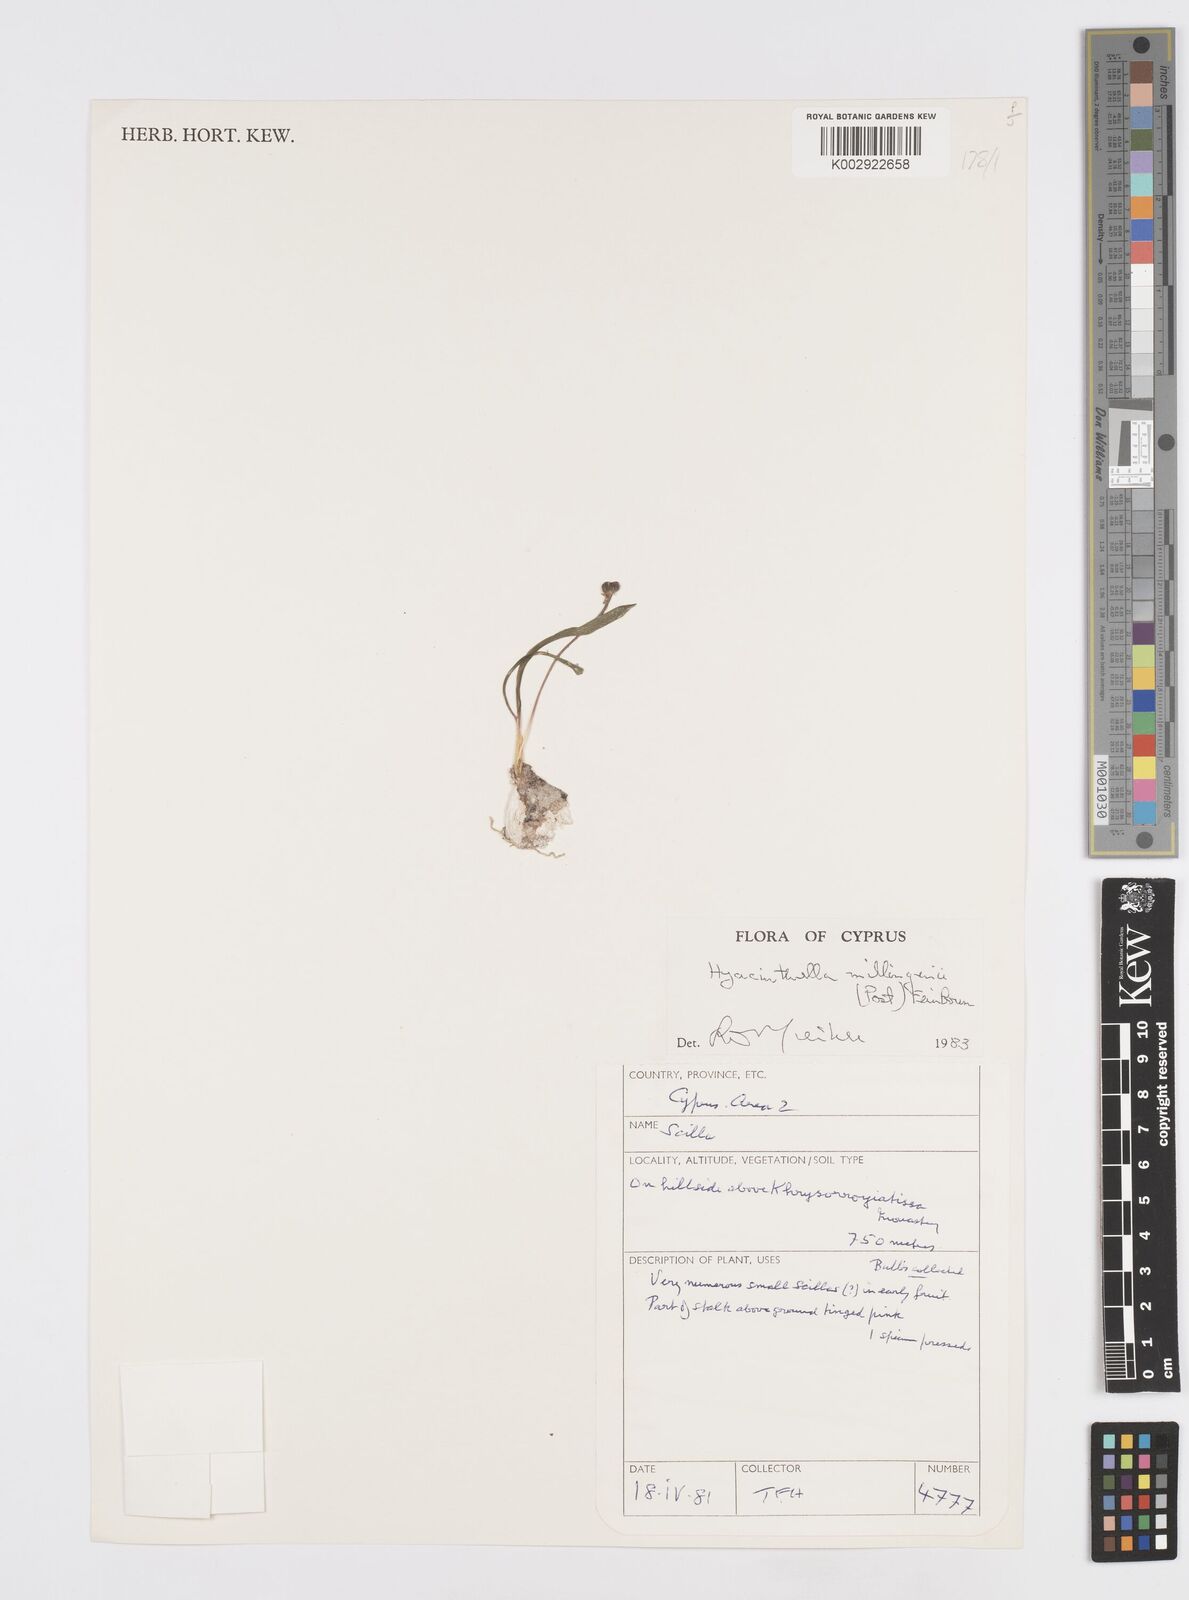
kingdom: Plantae
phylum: Tracheophyta
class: Liliopsida
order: Asparagales
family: Asparagaceae
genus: Hyacinthella
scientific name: Hyacinthella millingenii
